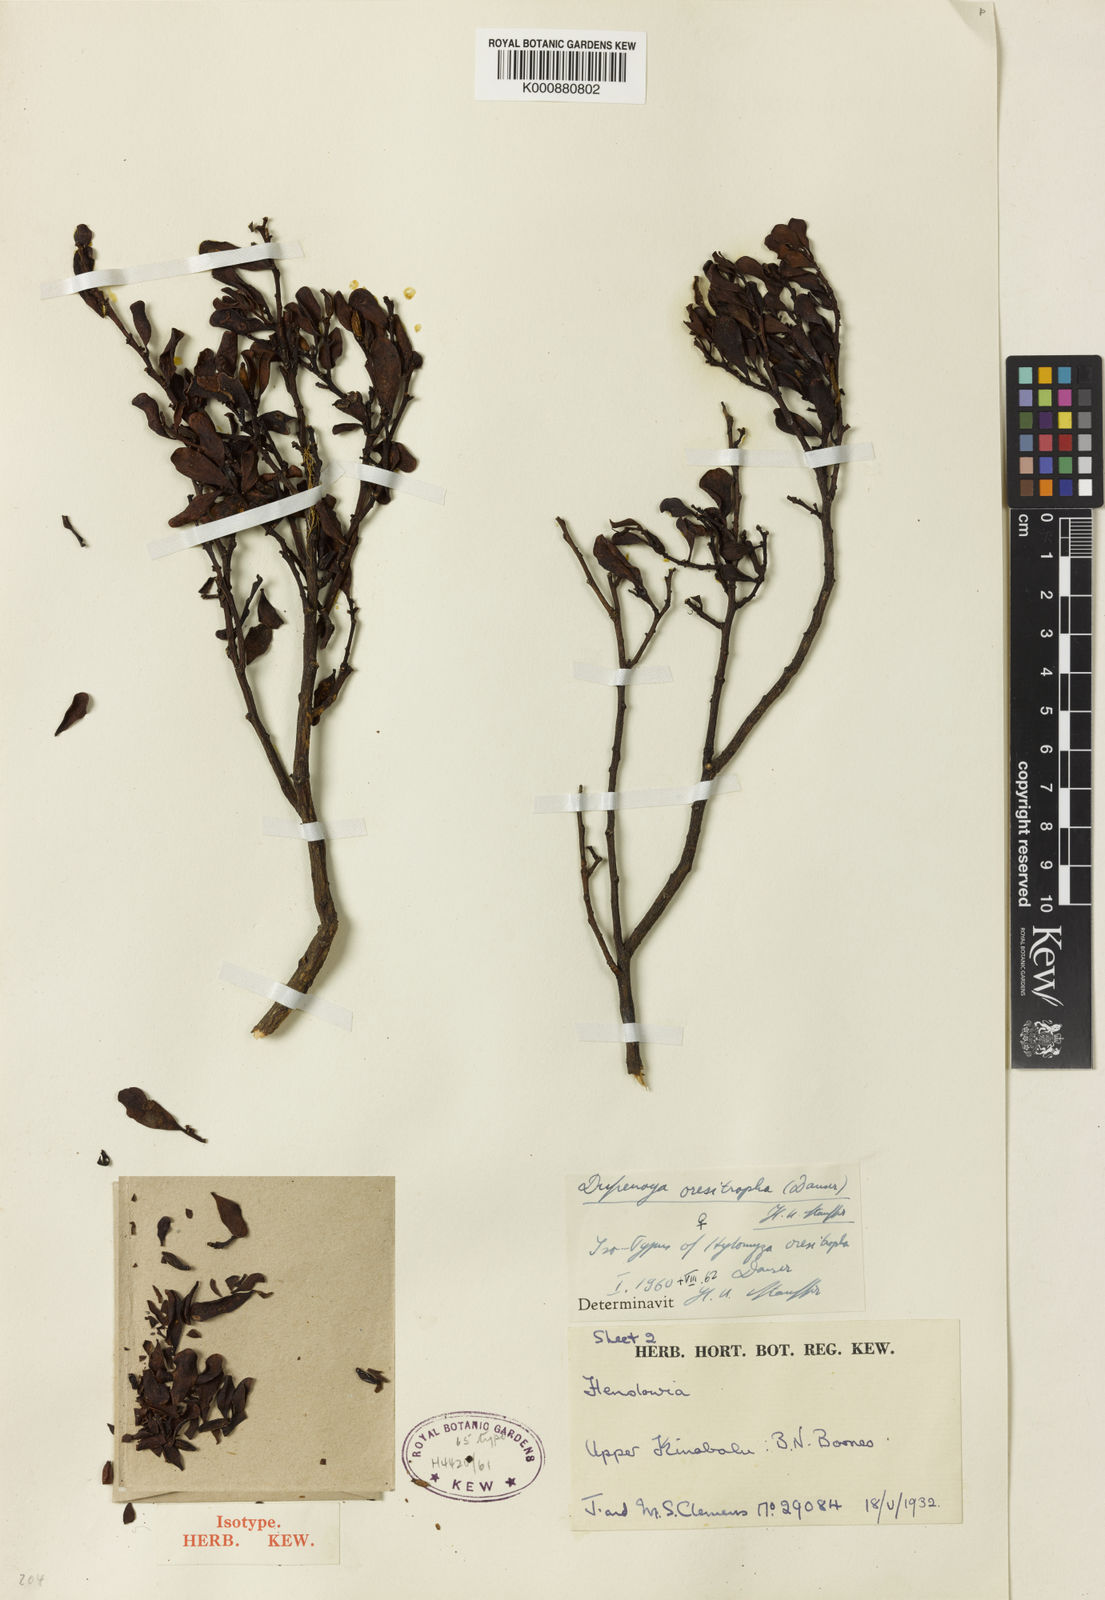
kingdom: Plantae
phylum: Tracheophyta
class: Magnoliopsida
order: Santalales
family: Amphorogynaceae
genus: Dufrenoya
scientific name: Dufrenoya oresitropha
